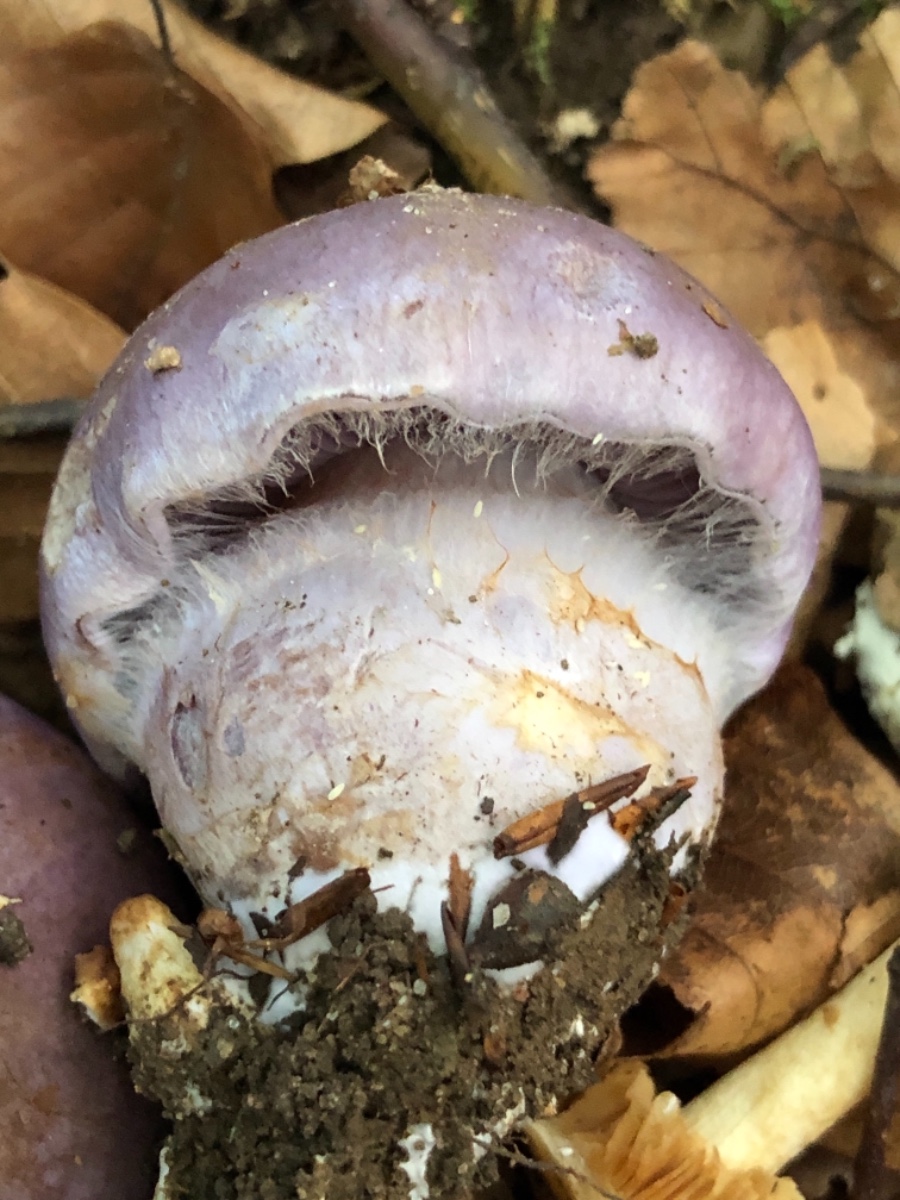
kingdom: Fungi
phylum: Basidiomycota
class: Agaricomycetes
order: Agaricales
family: Cortinariaceae
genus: Cortinarius
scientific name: Cortinarius largus
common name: violetrandet slørhat
